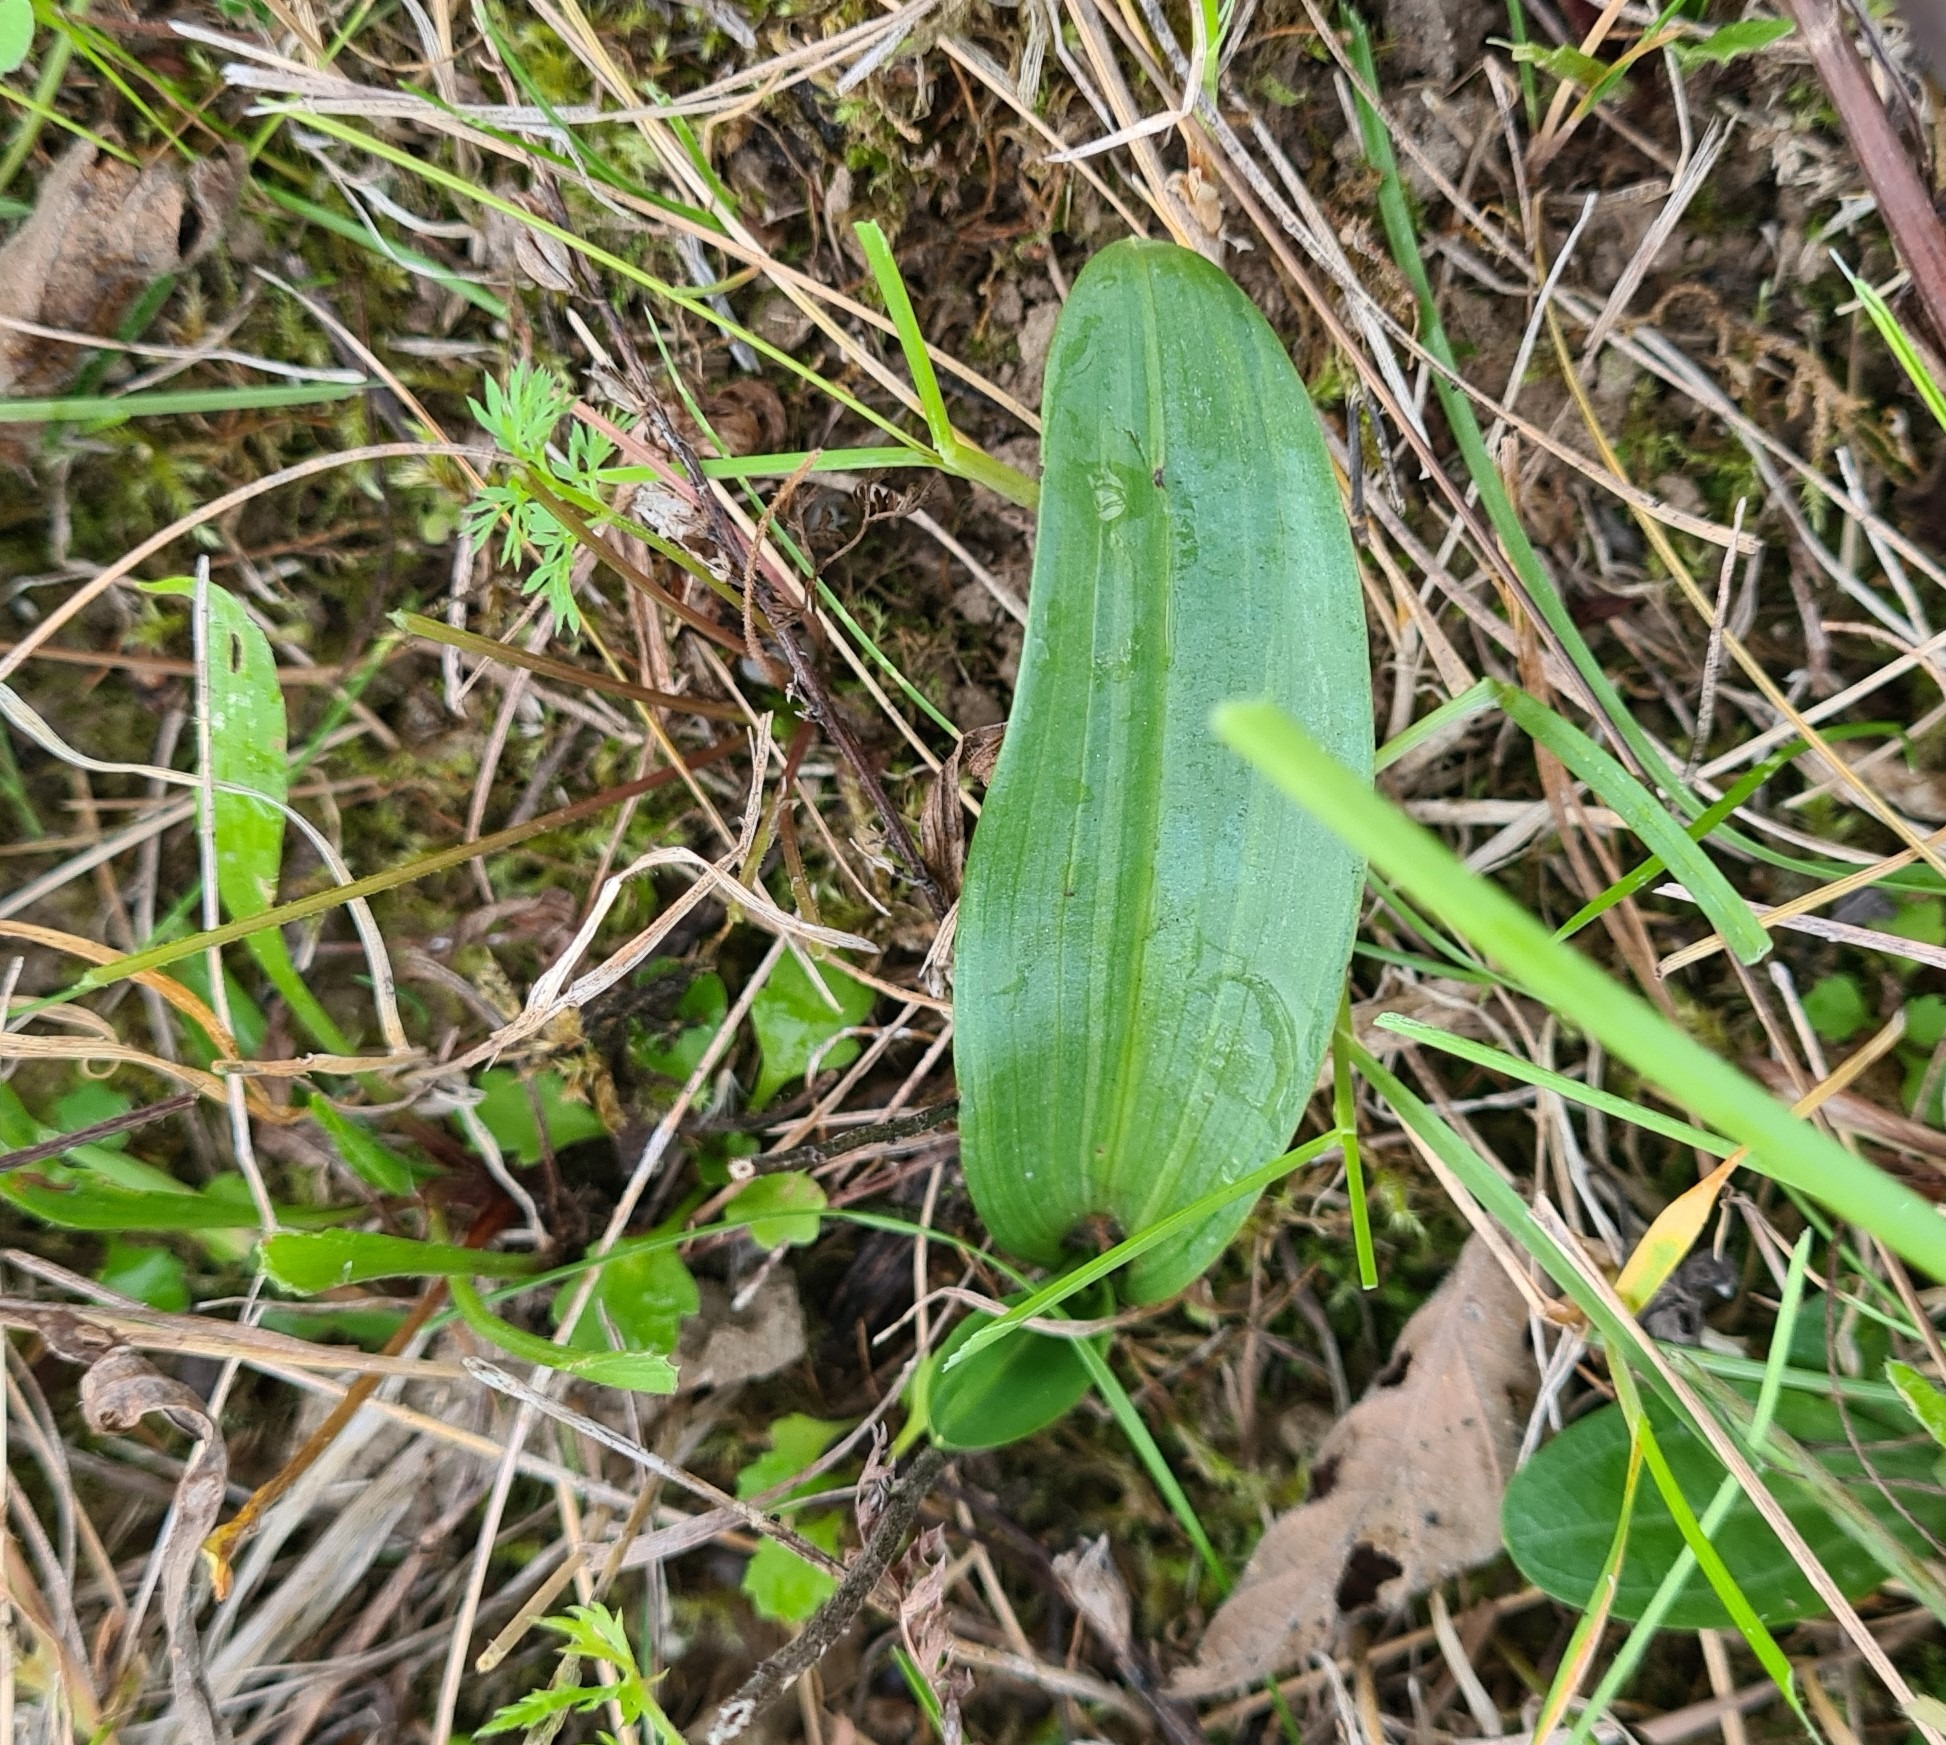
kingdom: Plantae
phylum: Tracheophyta
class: Liliopsida
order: Asparagales
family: Orchidaceae
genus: Ophrys
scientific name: Ophrys apifera
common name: Biblomst
